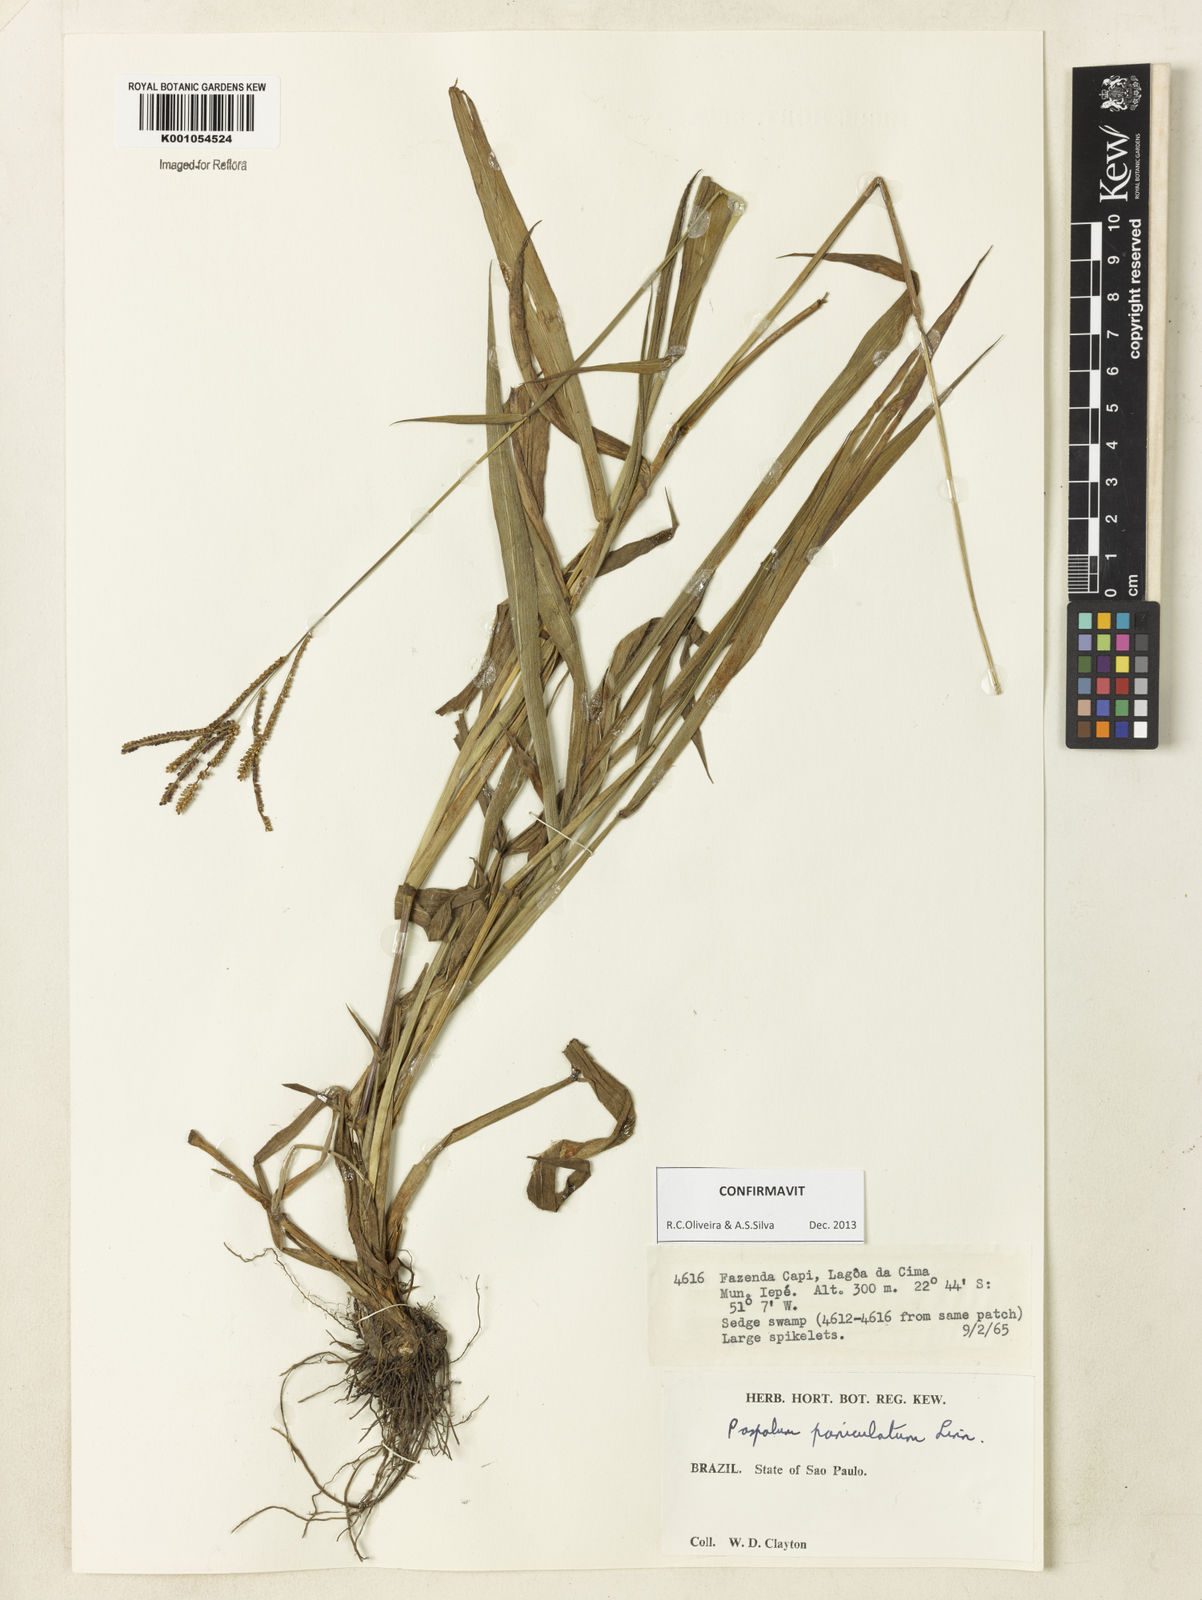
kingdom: Plantae
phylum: Tracheophyta
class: Liliopsida
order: Poales
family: Poaceae
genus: Paspalum
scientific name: Paspalum paniculatum
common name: Arrocillo
